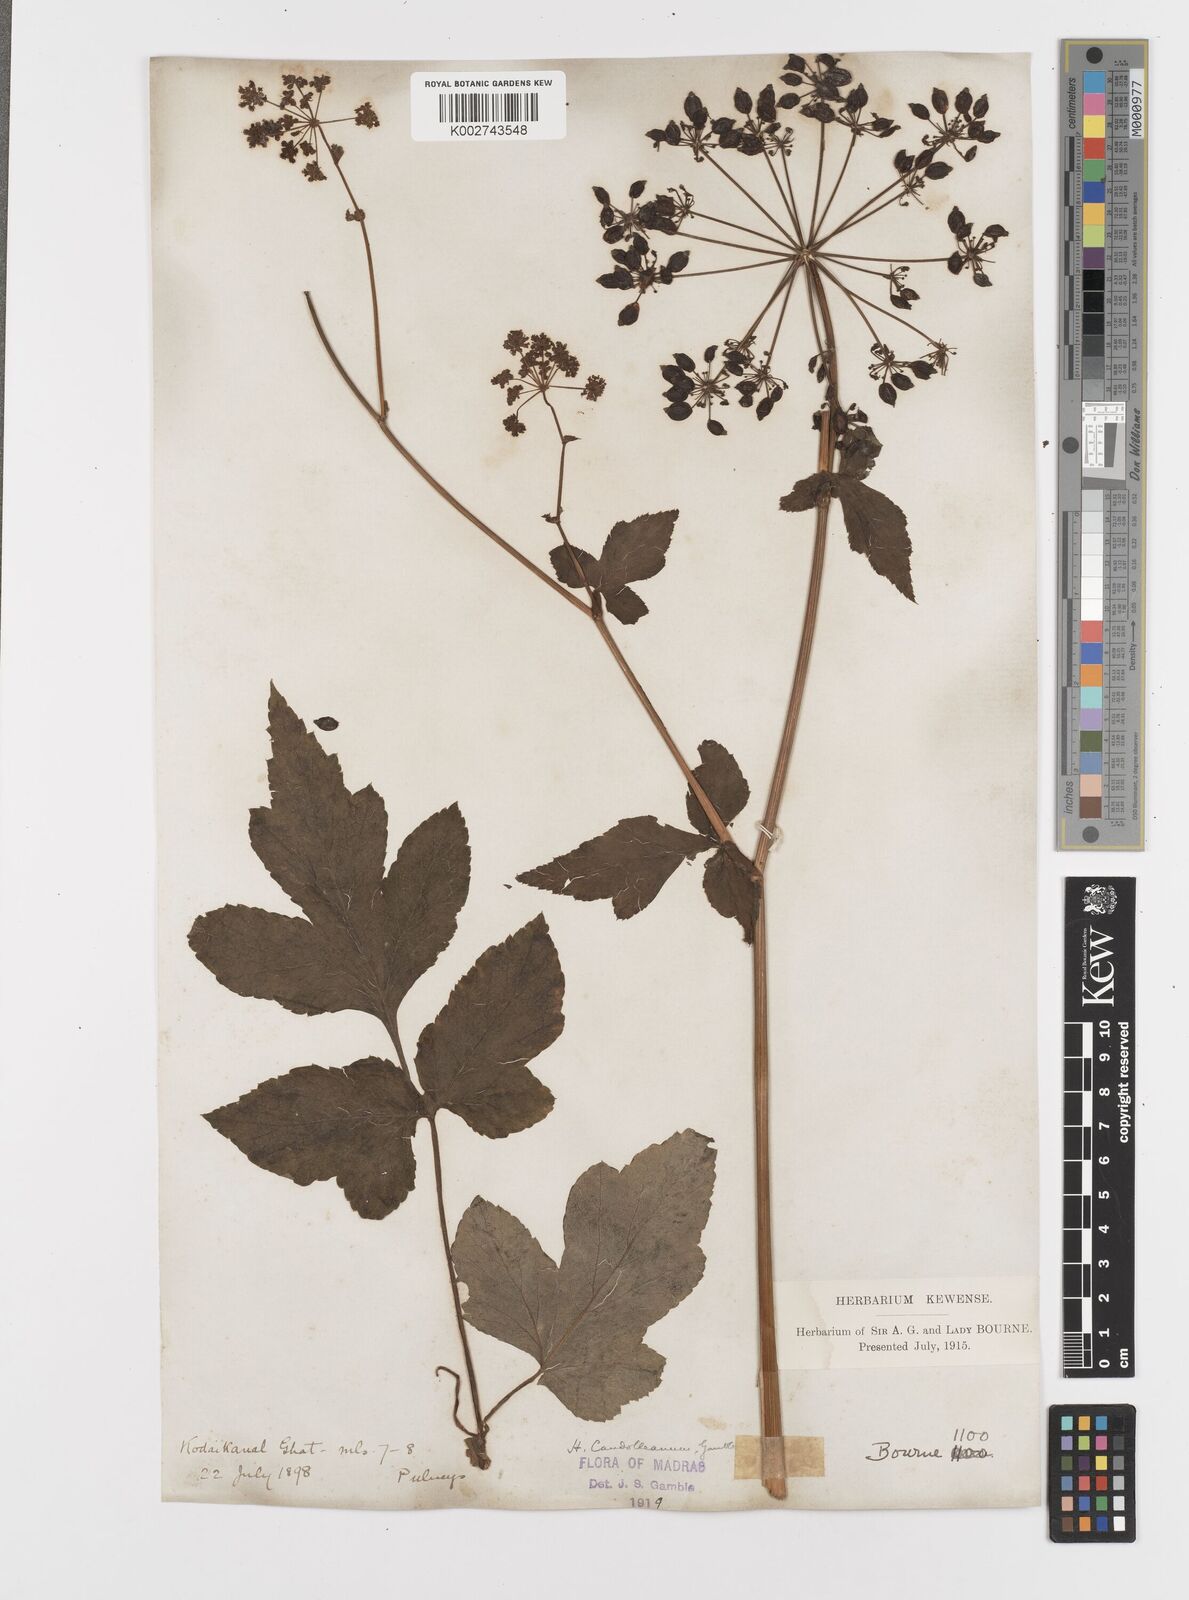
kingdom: Plantae
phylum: Tracheophyta
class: Magnoliopsida
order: Apiales
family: Apiaceae
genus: Tetrataenium
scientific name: Tetrataenium rigens
